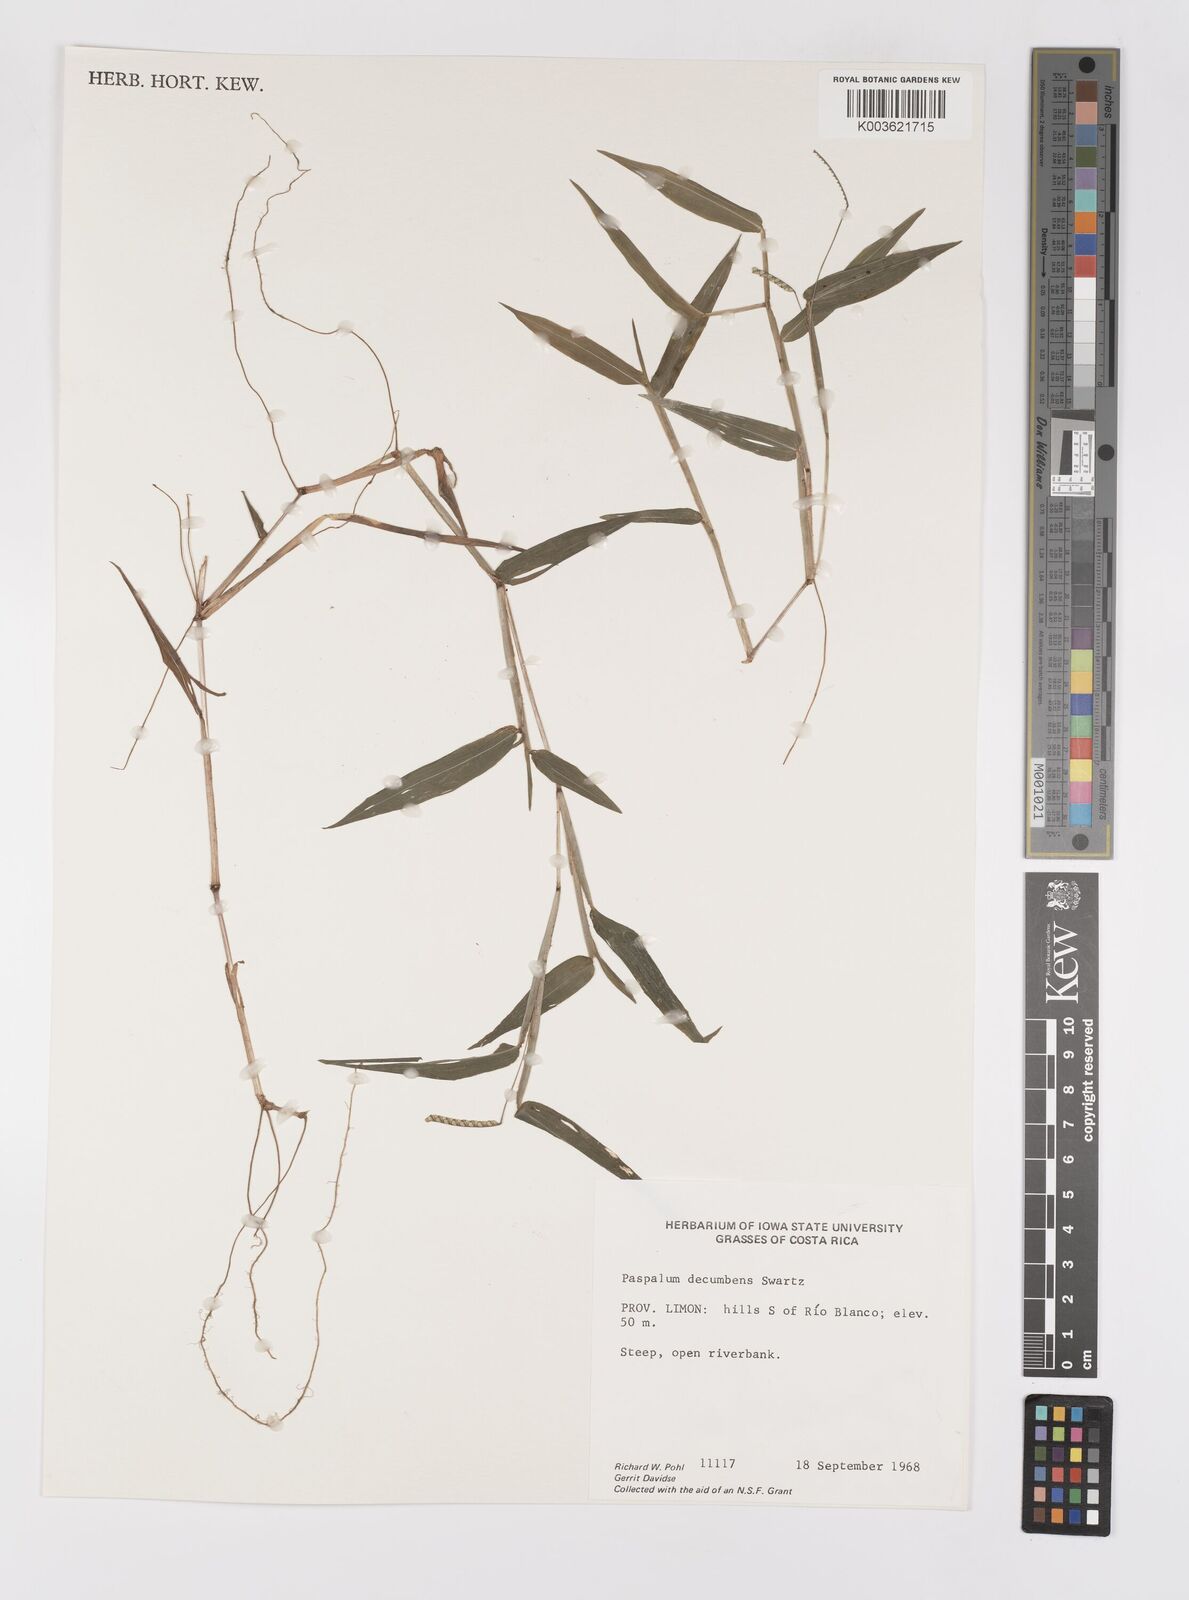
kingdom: Plantae
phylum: Tracheophyta
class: Liliopsida
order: Poales
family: Poaceae
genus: Paspalum
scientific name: Paspalum
